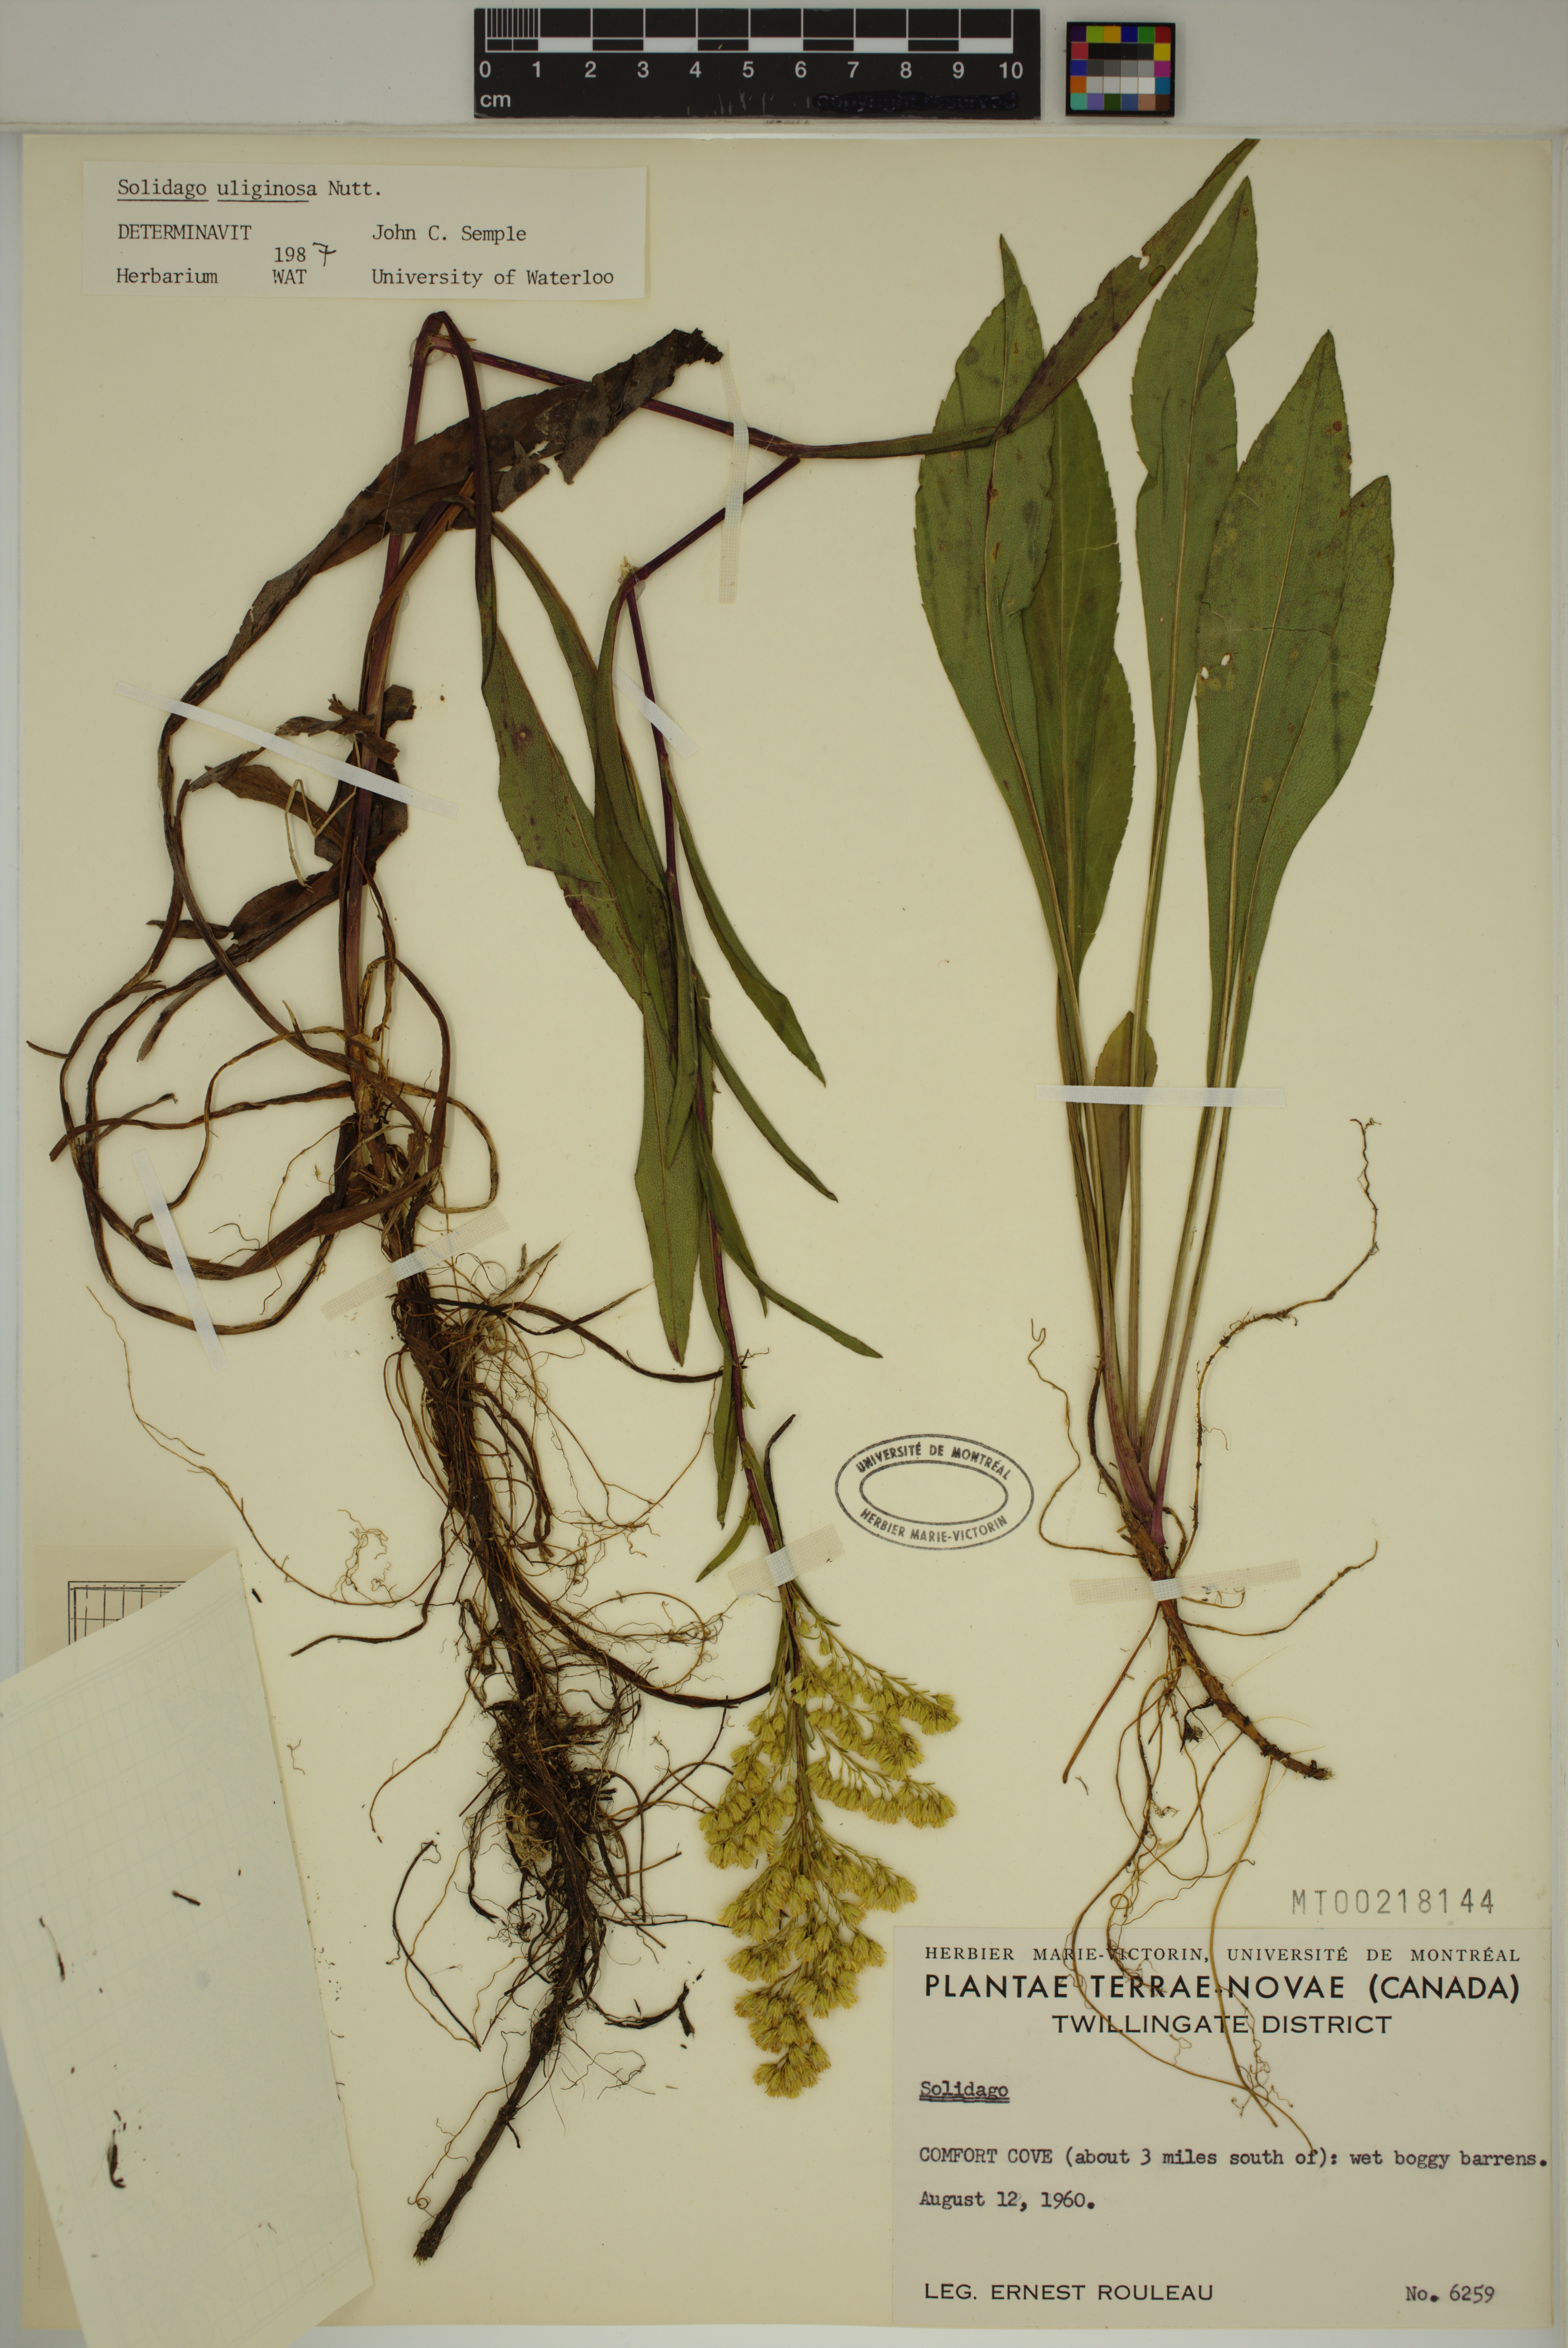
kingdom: Plantae
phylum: Tracheophyta
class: Magnoliopsida
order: Asterales
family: Asteraceae
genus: Solidago
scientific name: Solidago uliginosa
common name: Bog goldenrod
